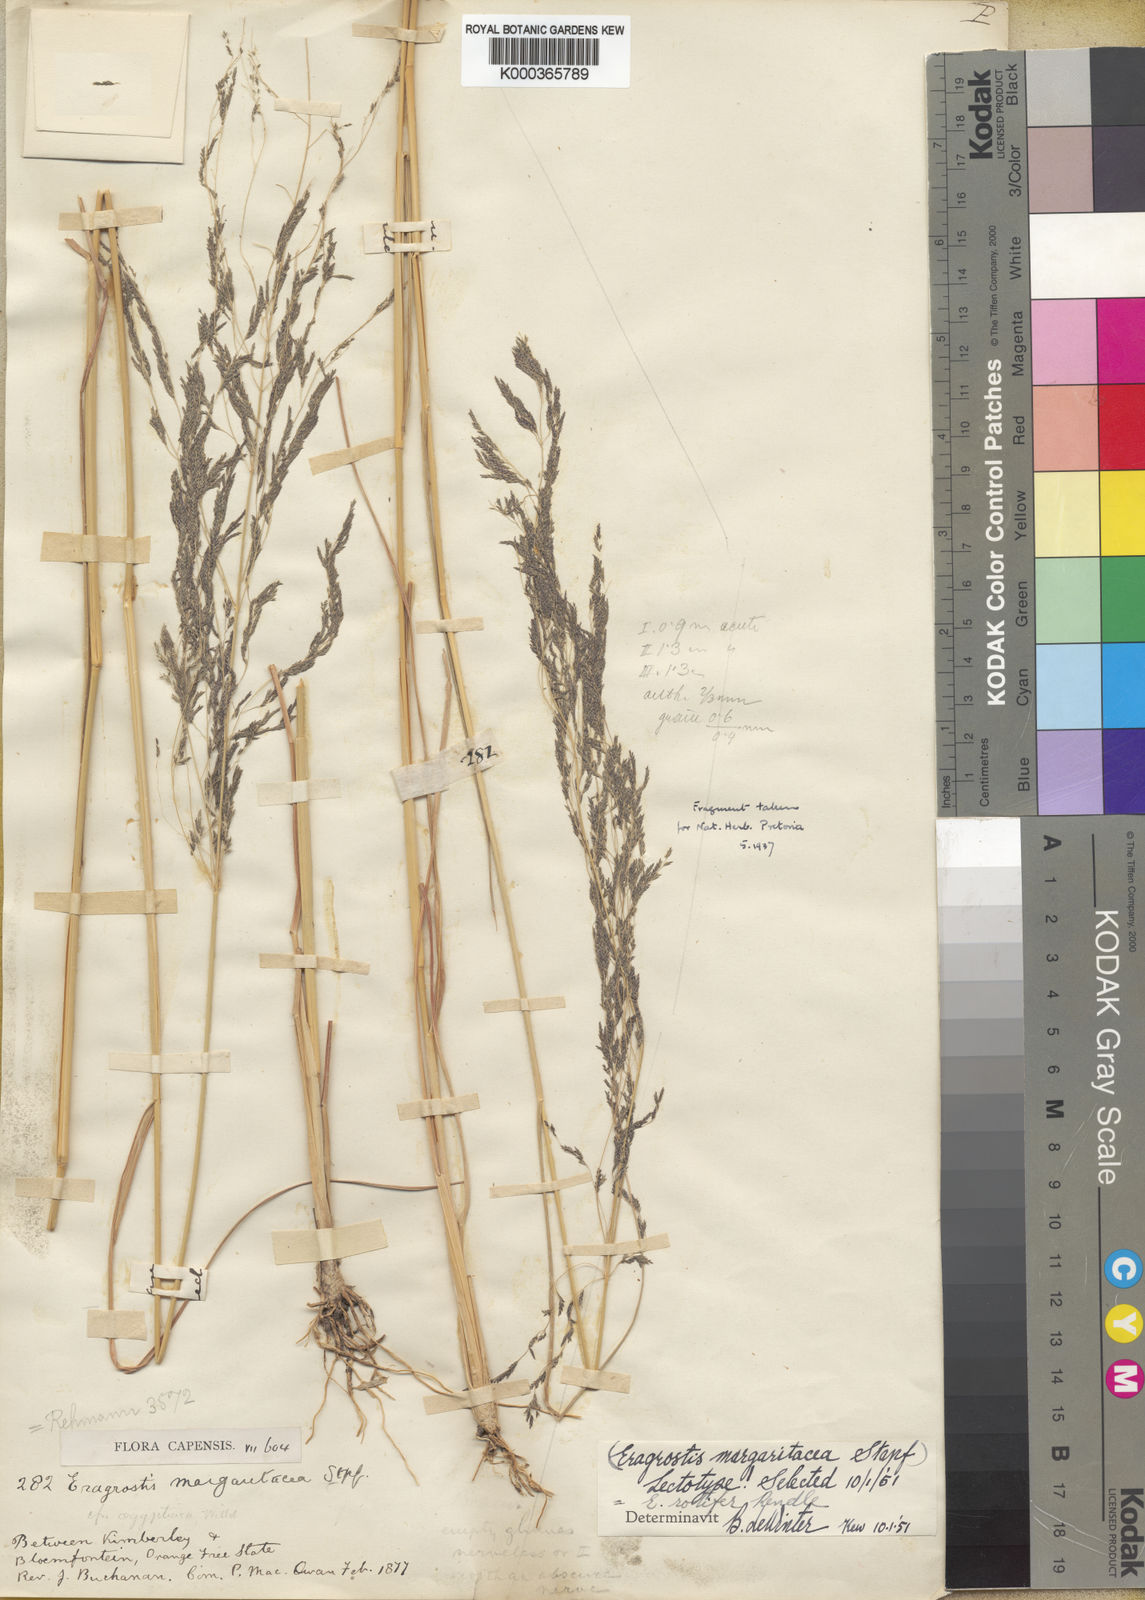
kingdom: Plantae
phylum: Tracheophyta
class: Liliopsida
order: Poales
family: Poaceae
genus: Eragrostis
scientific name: Eragrostis rotifer
